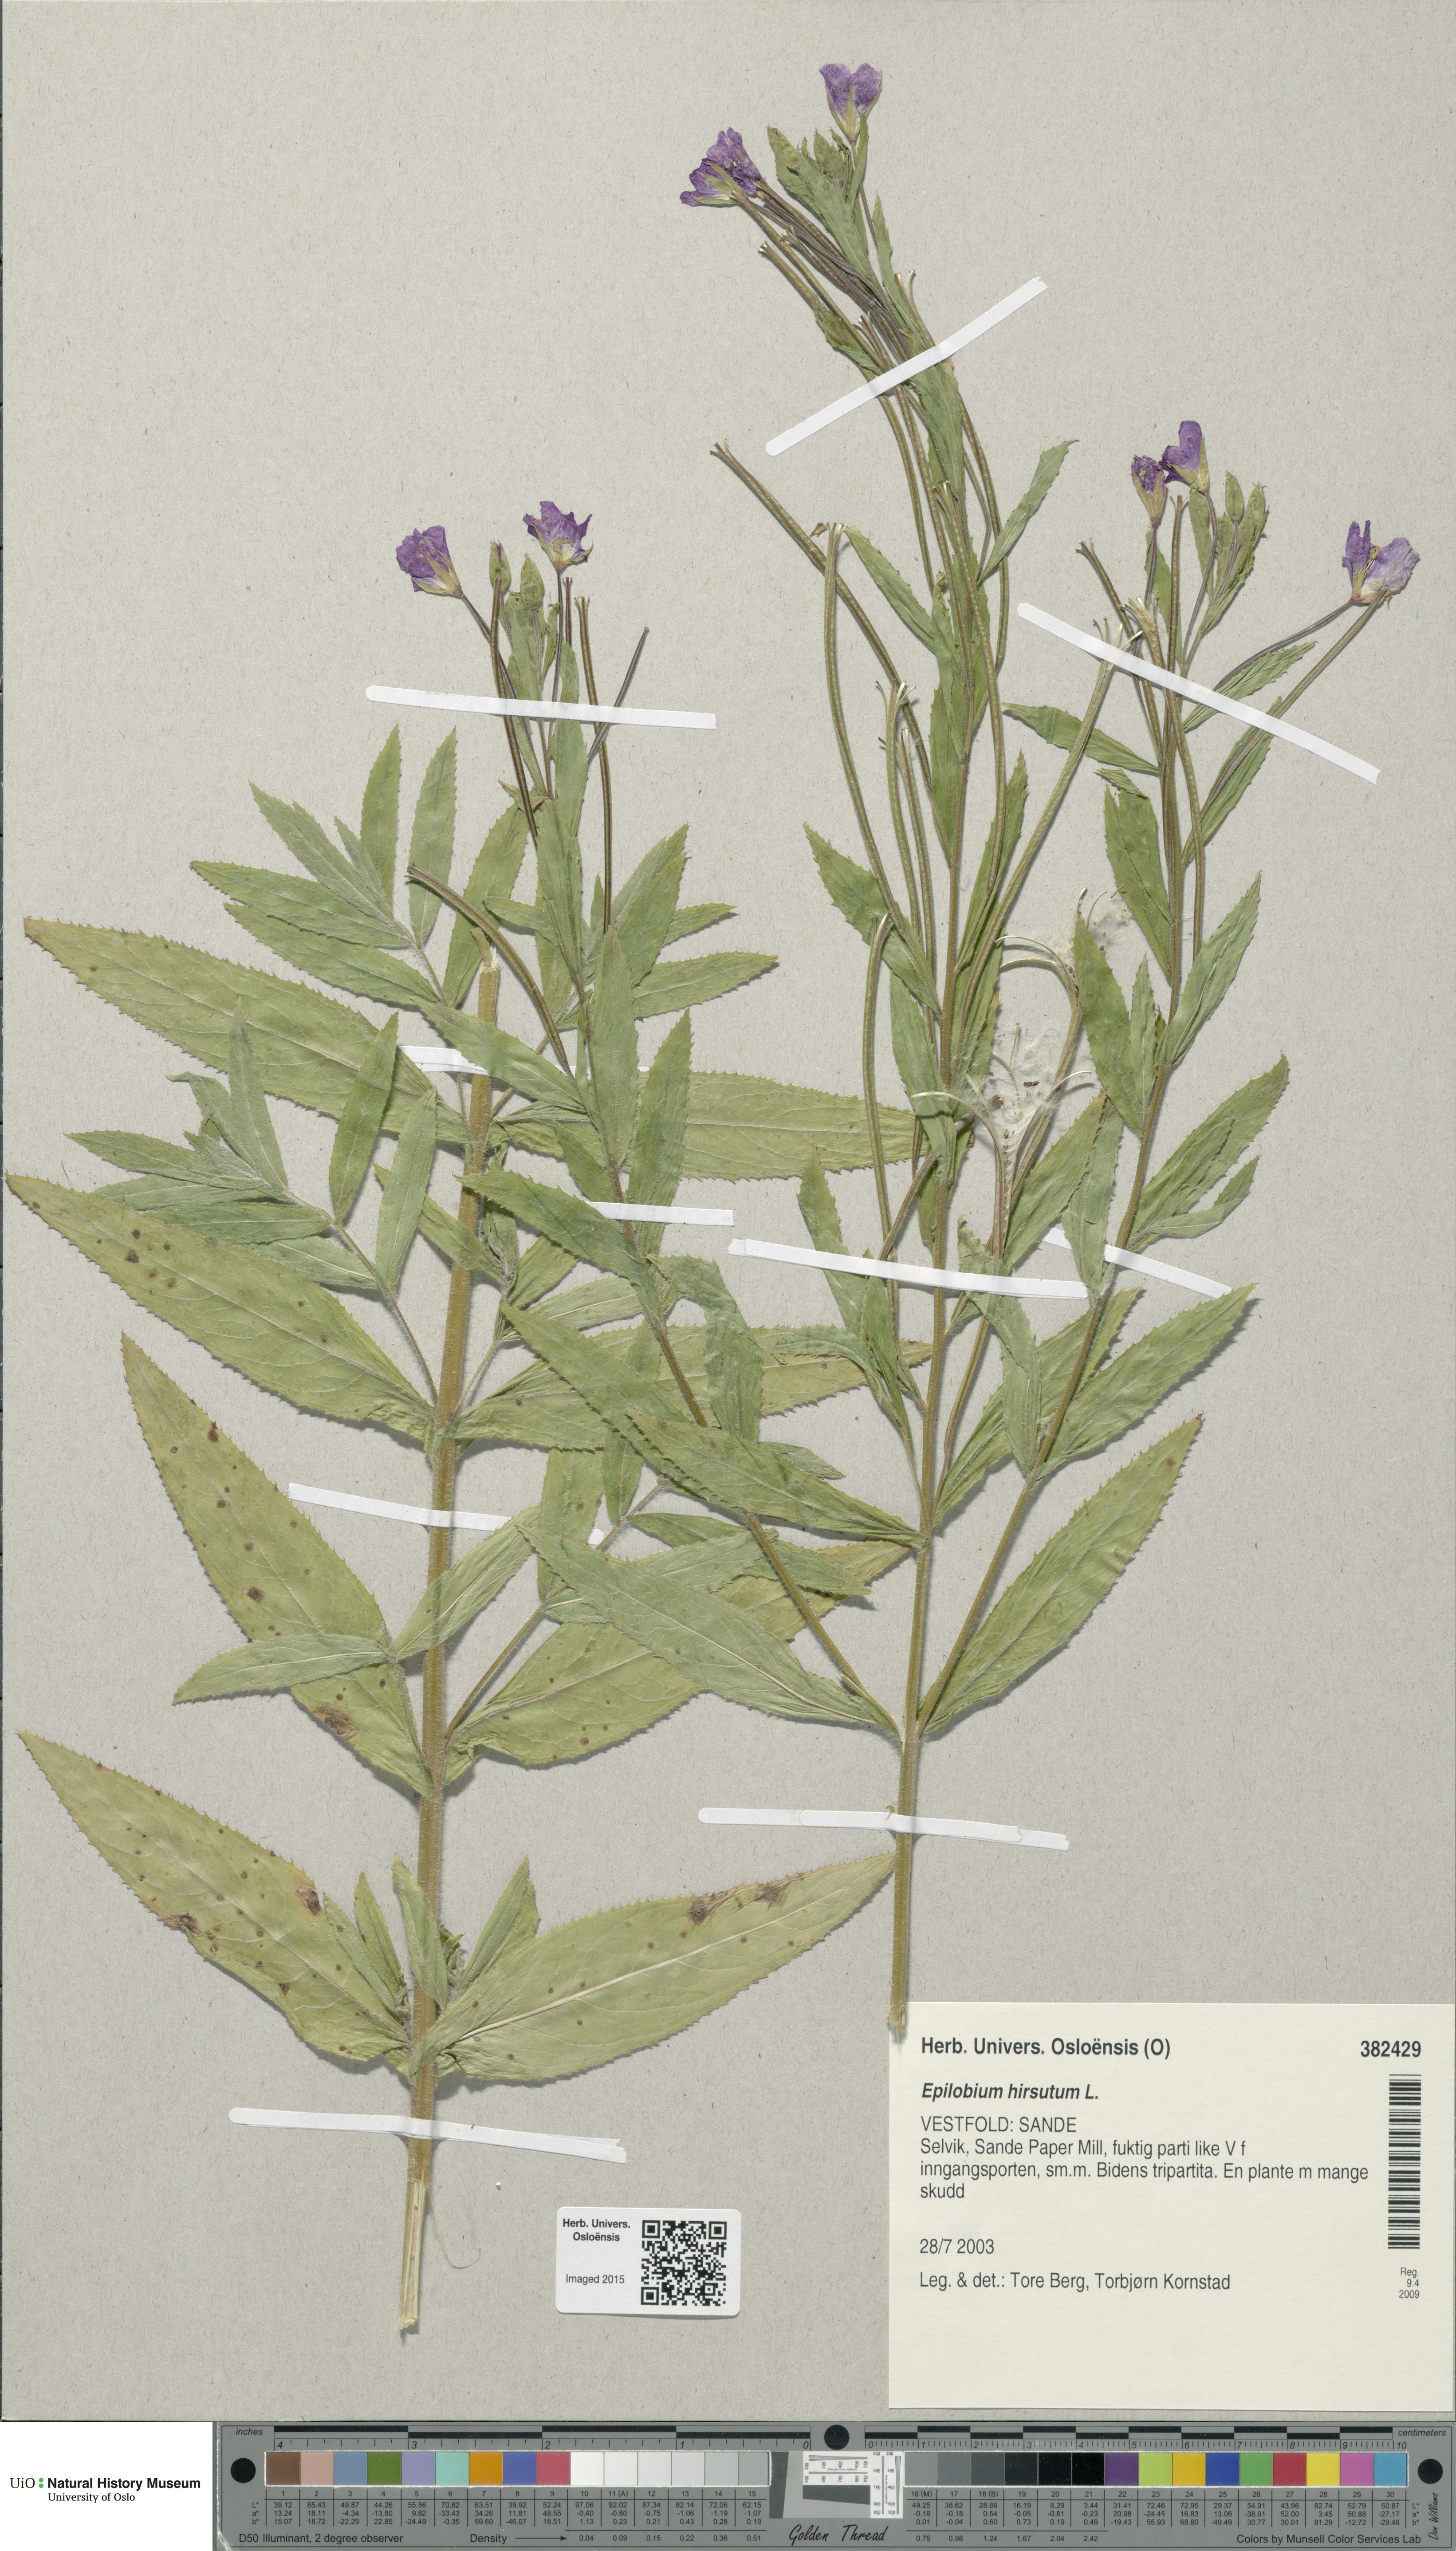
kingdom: Plantae
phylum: Tracheophyta
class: Magnoliopsida
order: Myrtales
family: Onagraceae
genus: Epilobium
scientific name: Epilobium hirsutum
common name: Great willowherb
